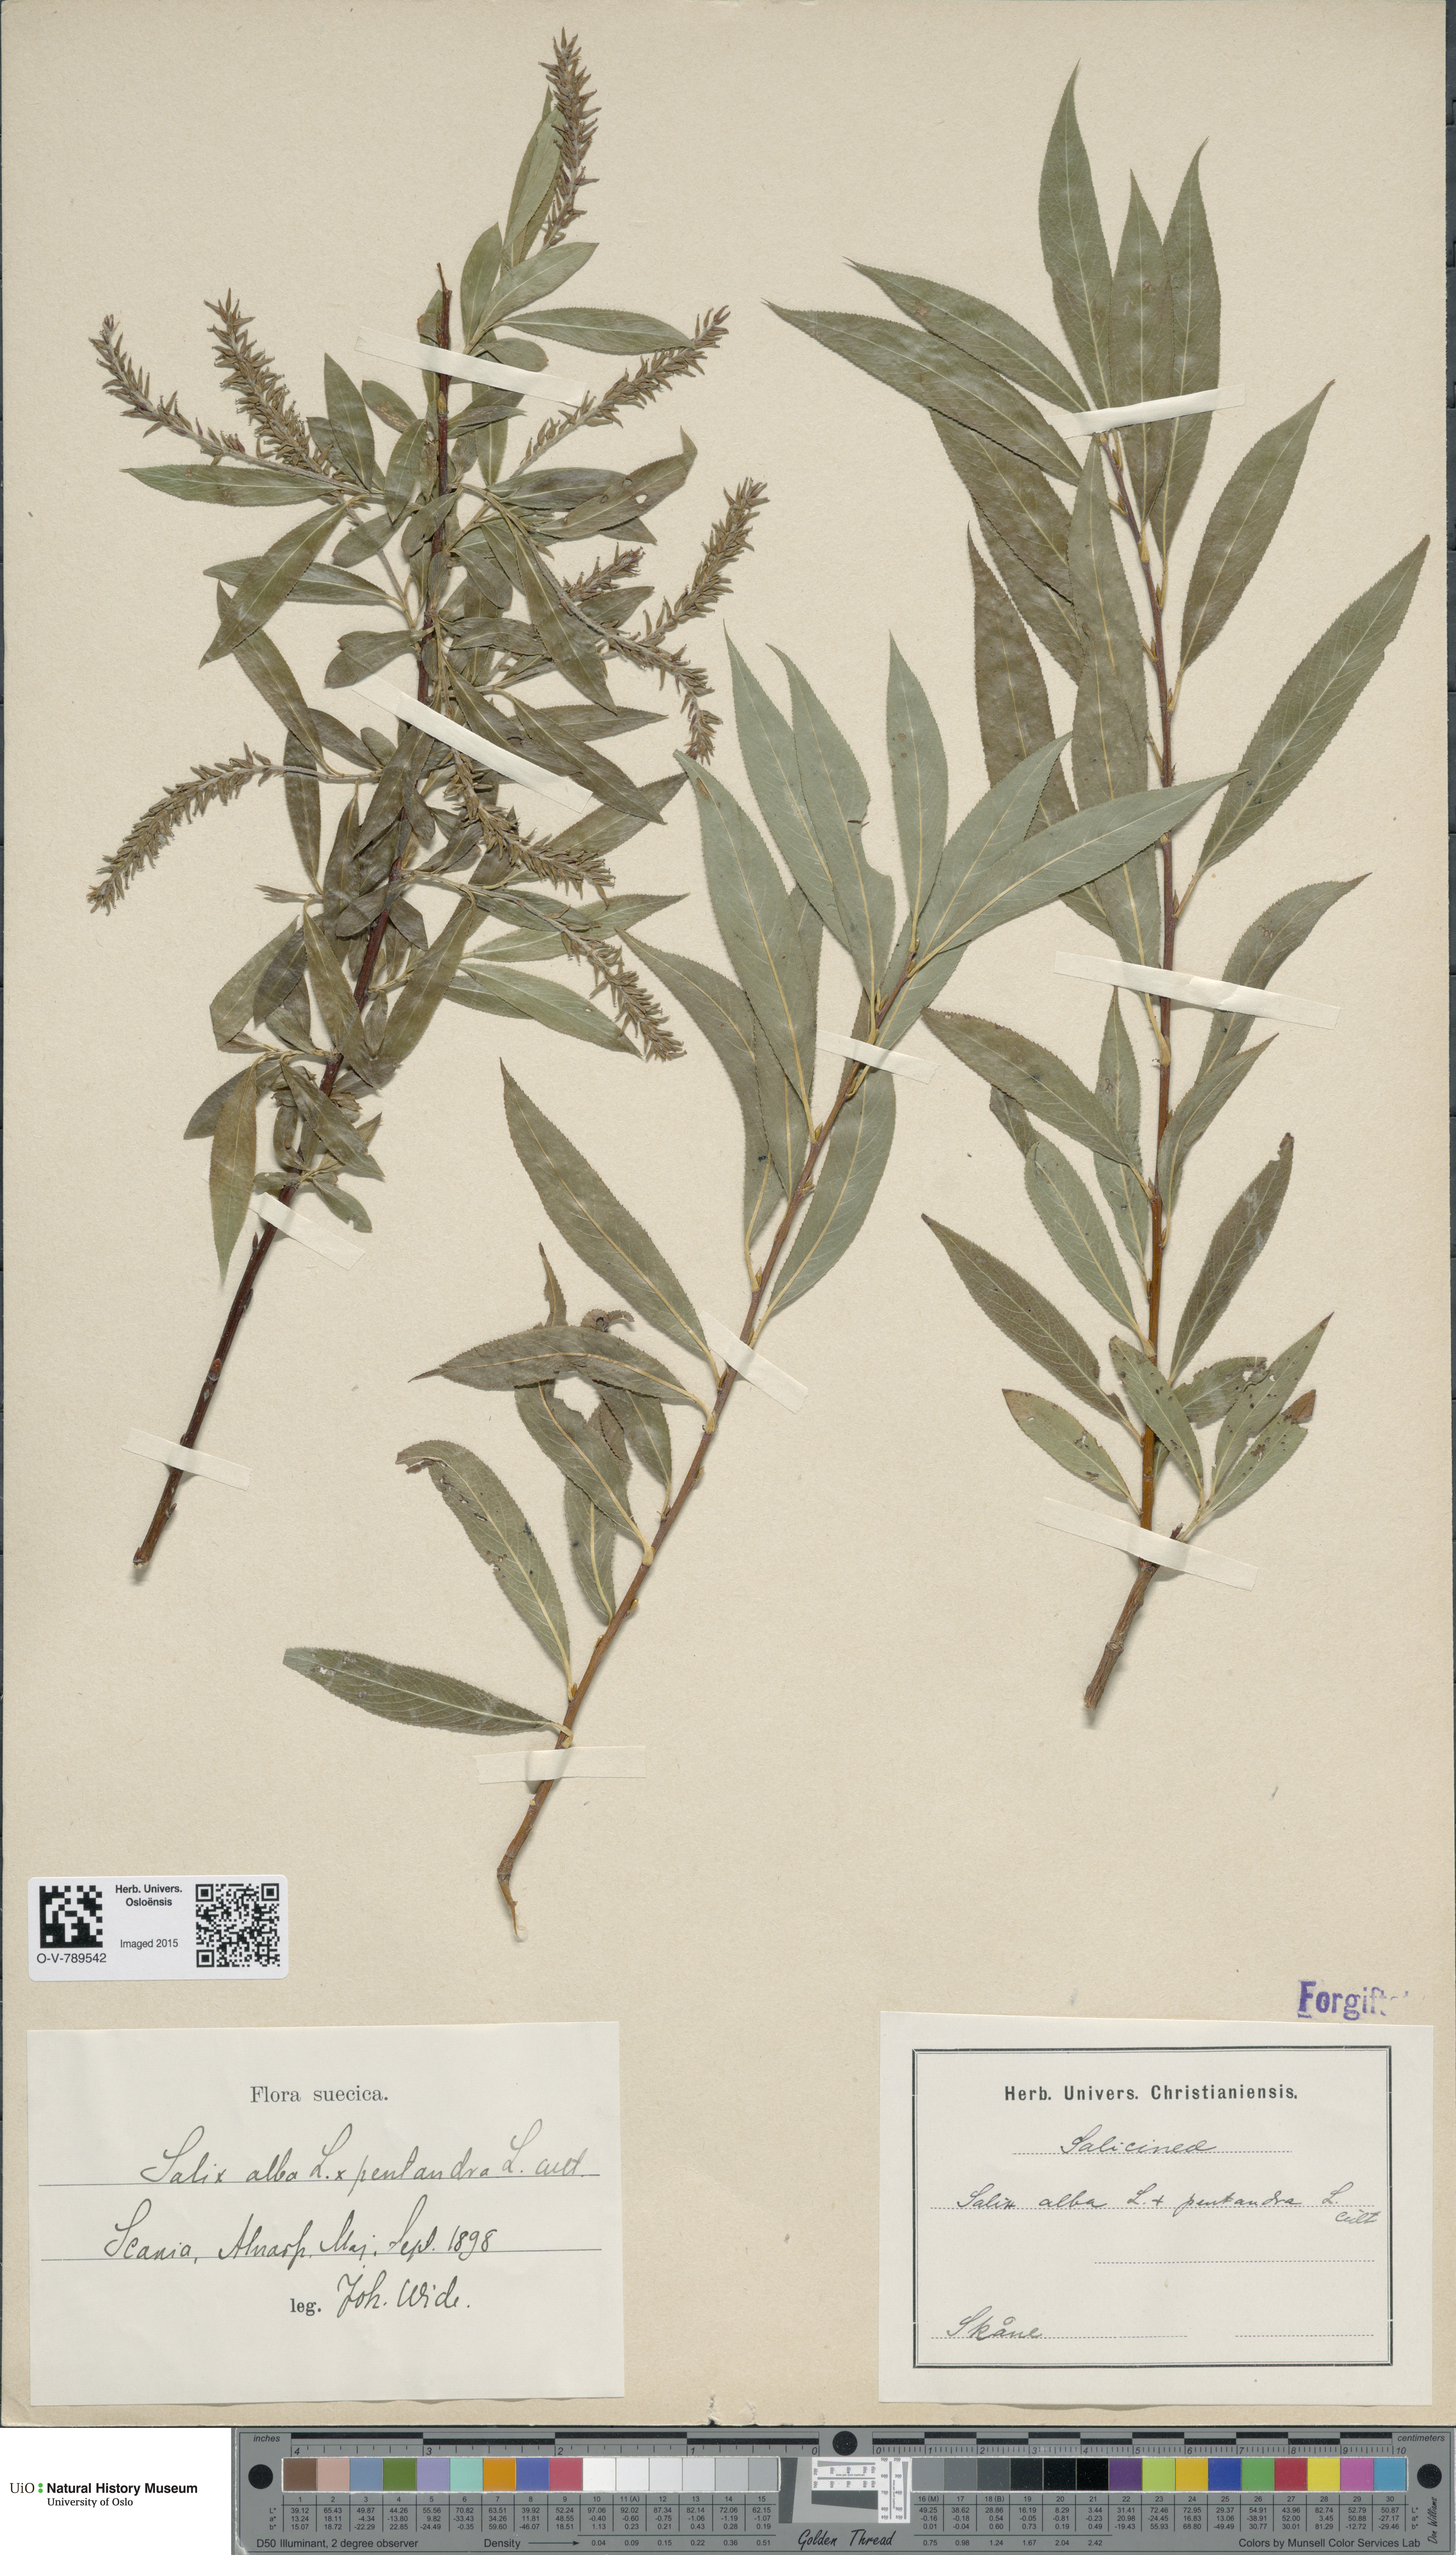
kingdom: Plantae
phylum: Tracheophyta
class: Magnoliopsida
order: Malpighiales
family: Salicaceae
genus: Salix
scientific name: Salix
